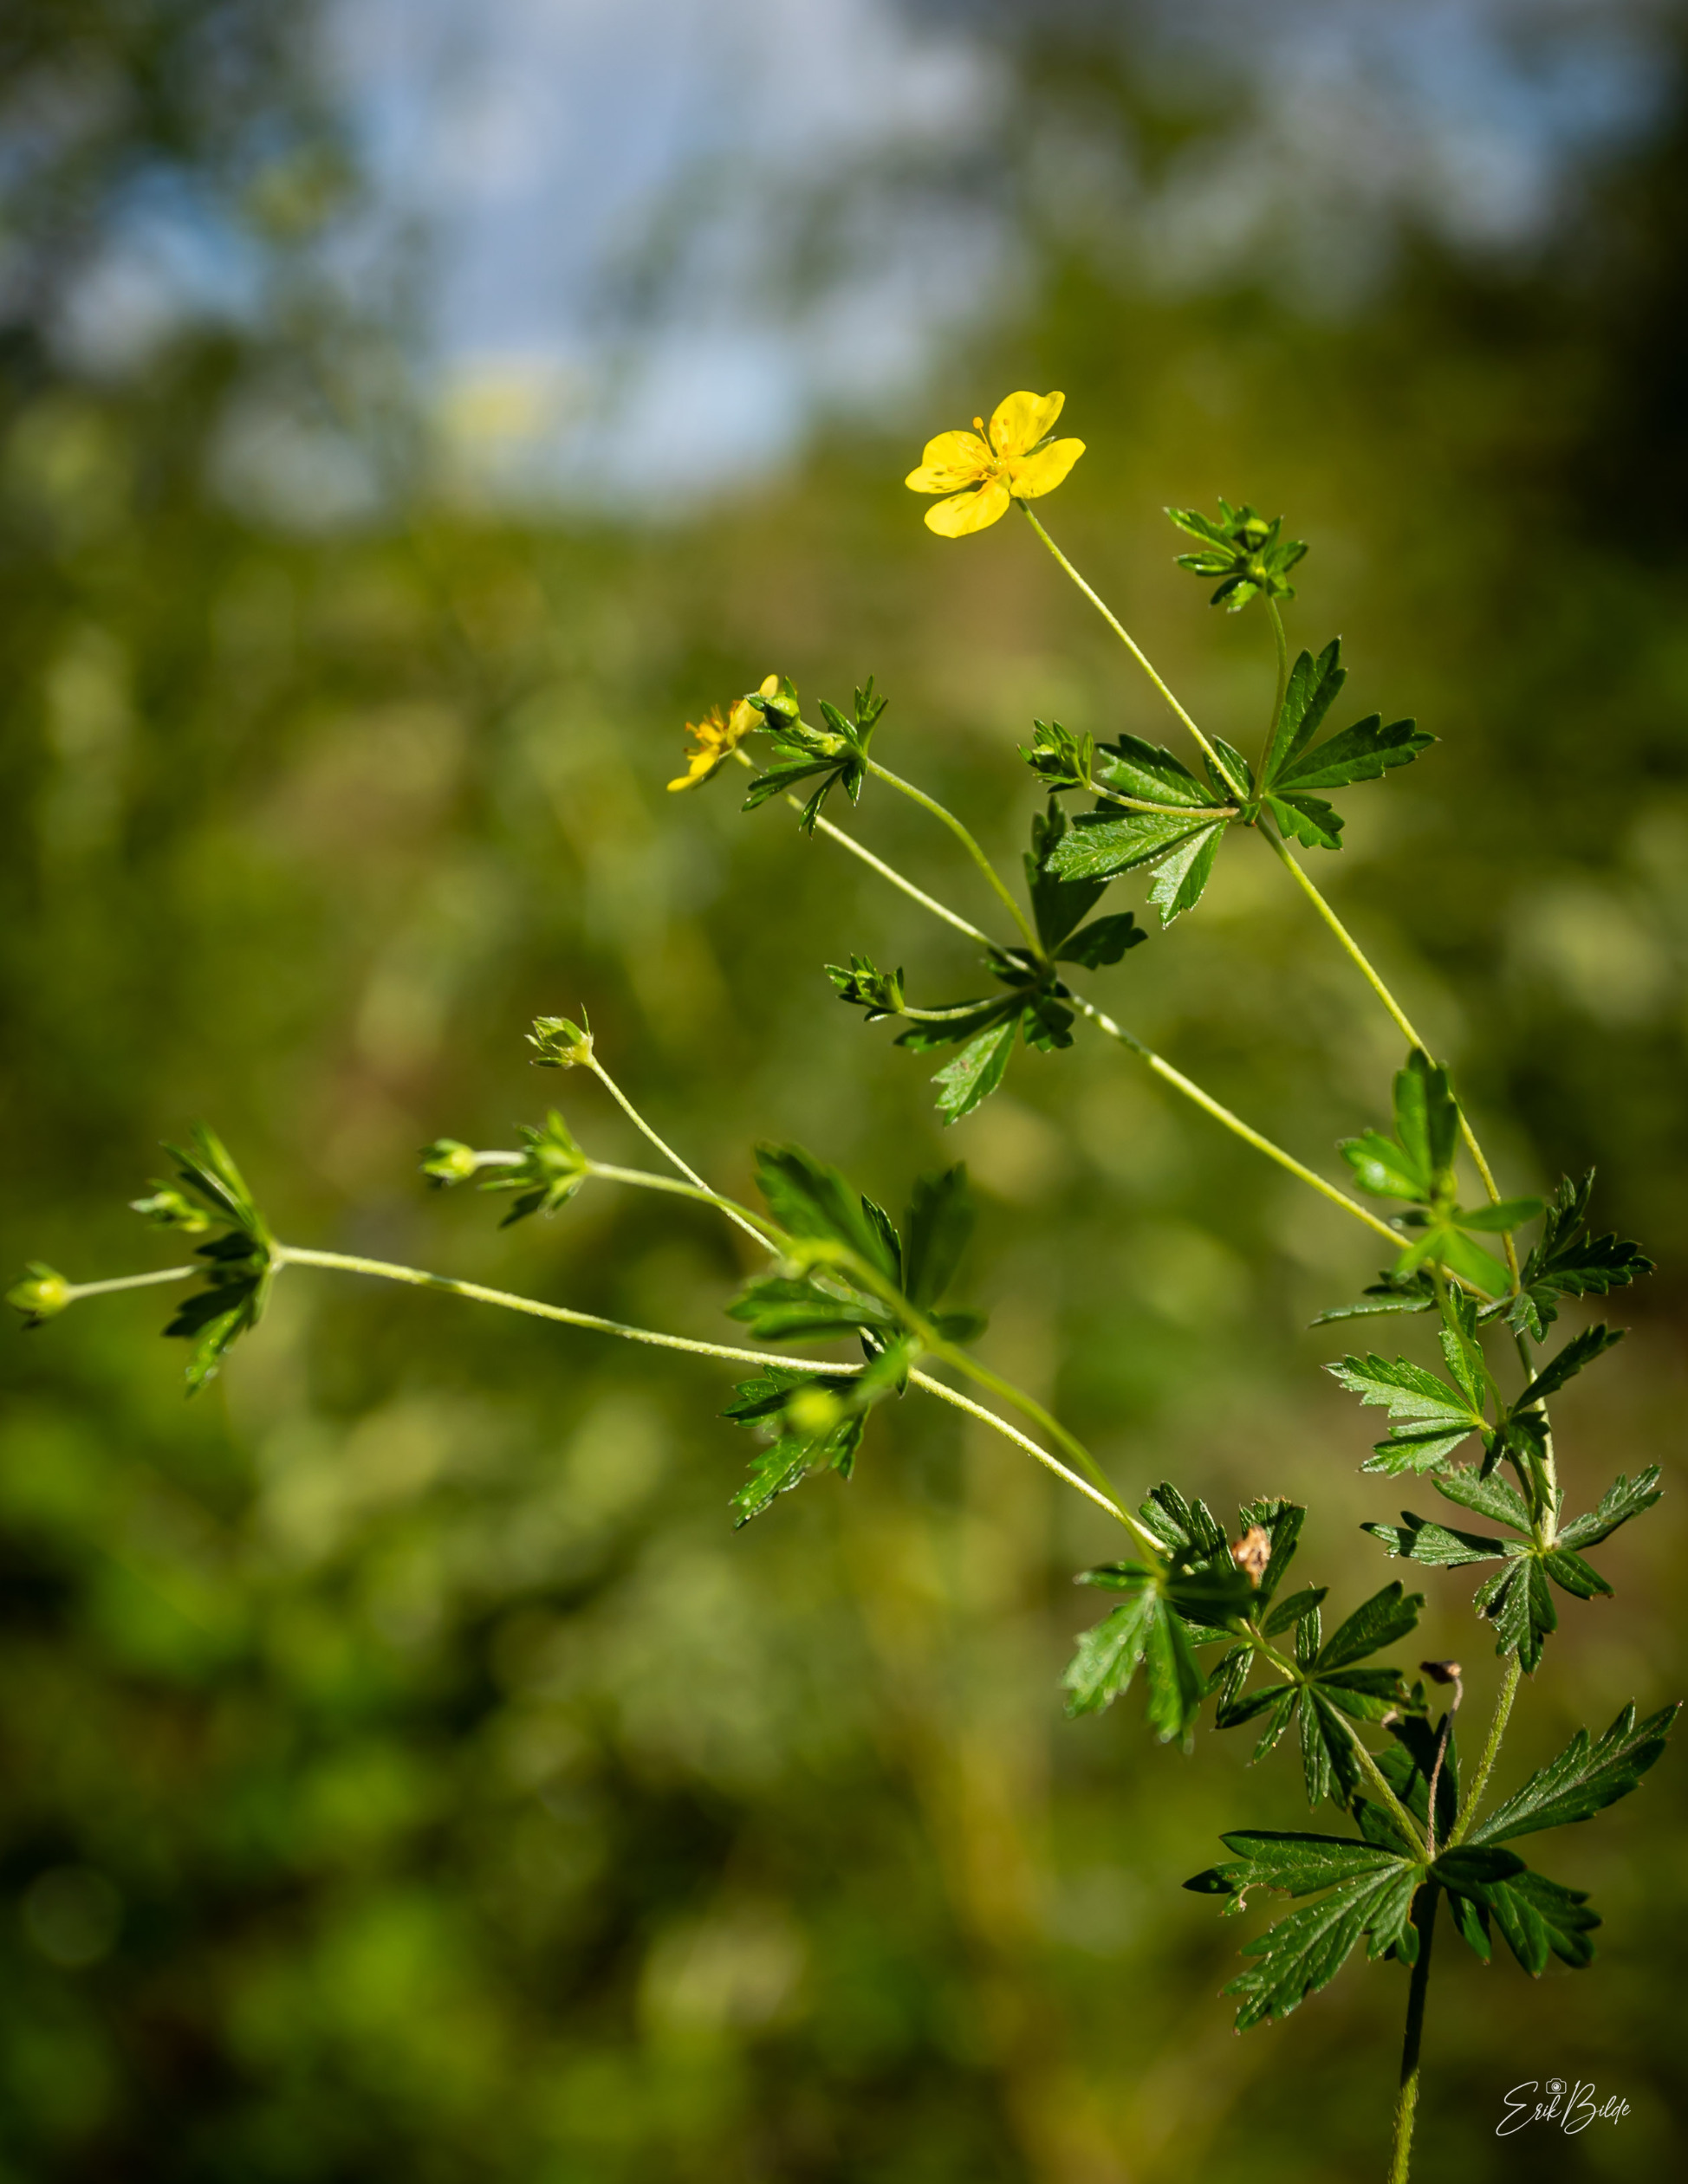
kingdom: Plantae
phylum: Tracheophyta
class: Magnoliopsida
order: Rosales
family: Rosaceae
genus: Potentilla
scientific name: Potentilla erecta
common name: Tormentil
